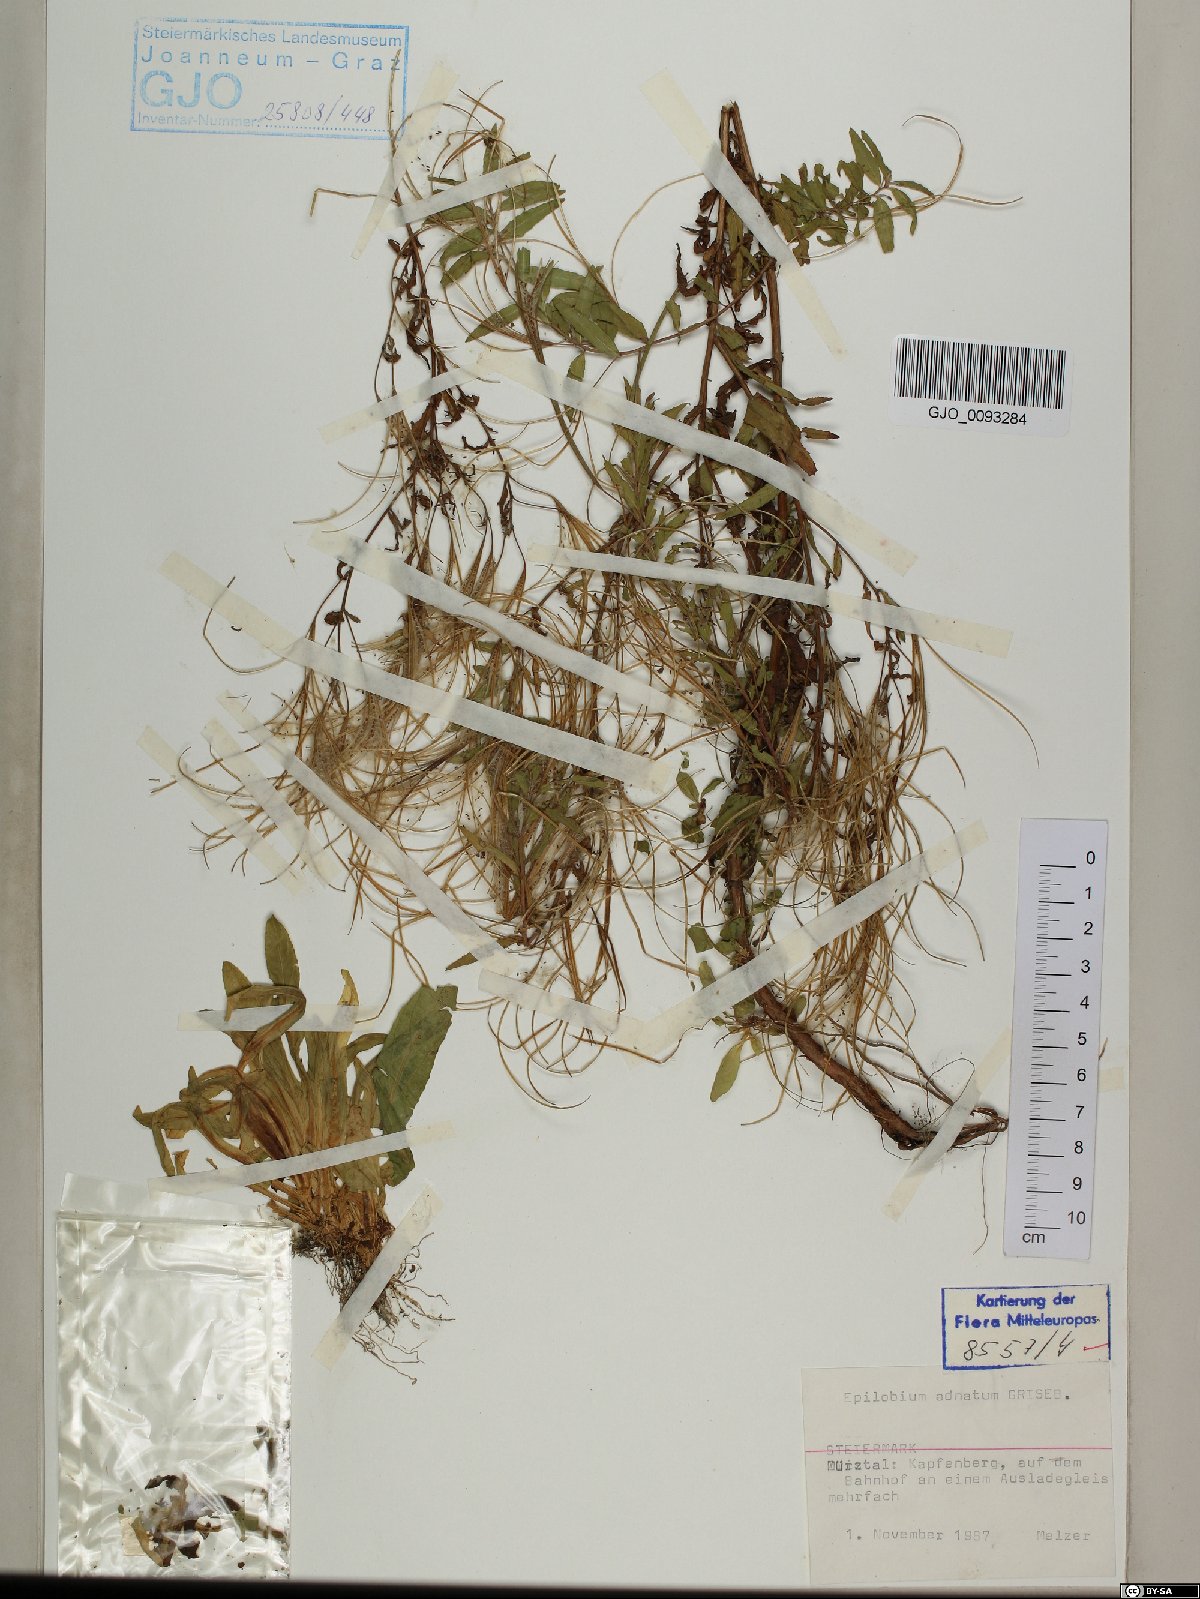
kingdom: Plantae
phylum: Tracheophyta
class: Magnoliopsida
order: Myrtales
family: Onagraceae
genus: Epilobium
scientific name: Epilobium tetragonum
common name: Square-stemmed willowherb
